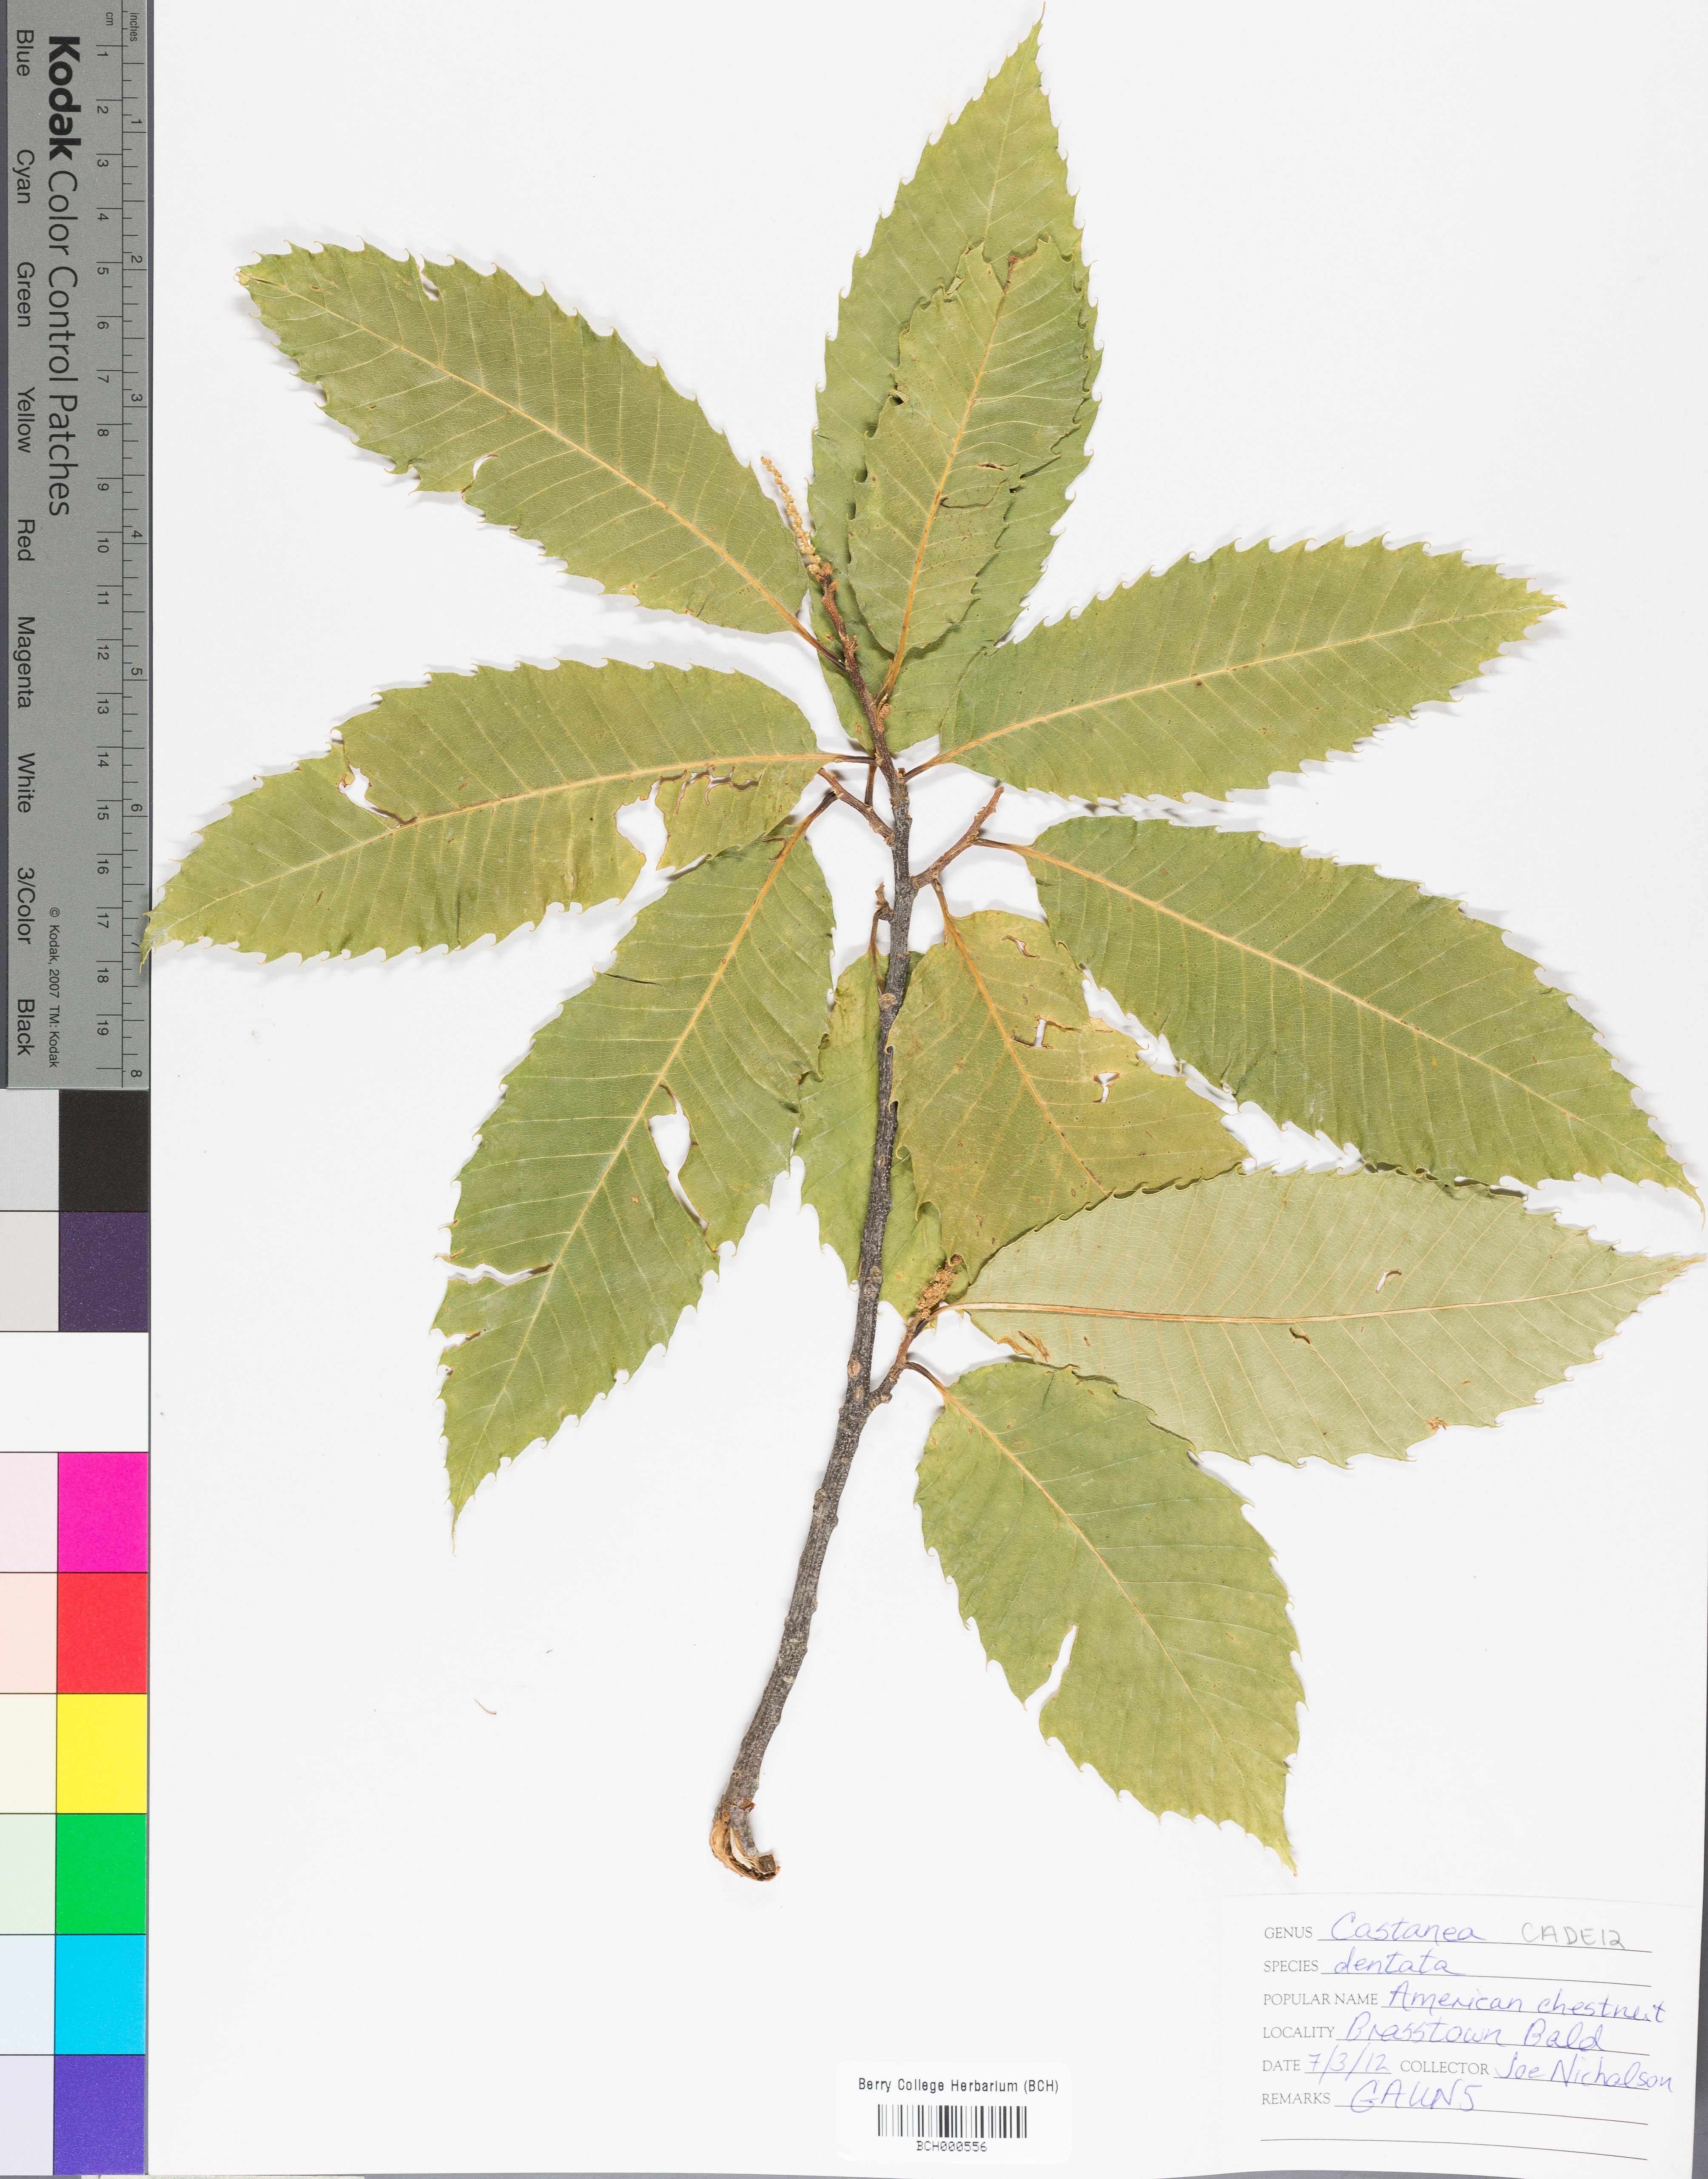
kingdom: Plantae
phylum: Tracheophyta
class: Magnoliopsida
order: Fagales
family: Fagaceae
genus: Castanea
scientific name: Castanea dentata
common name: American chestnut
